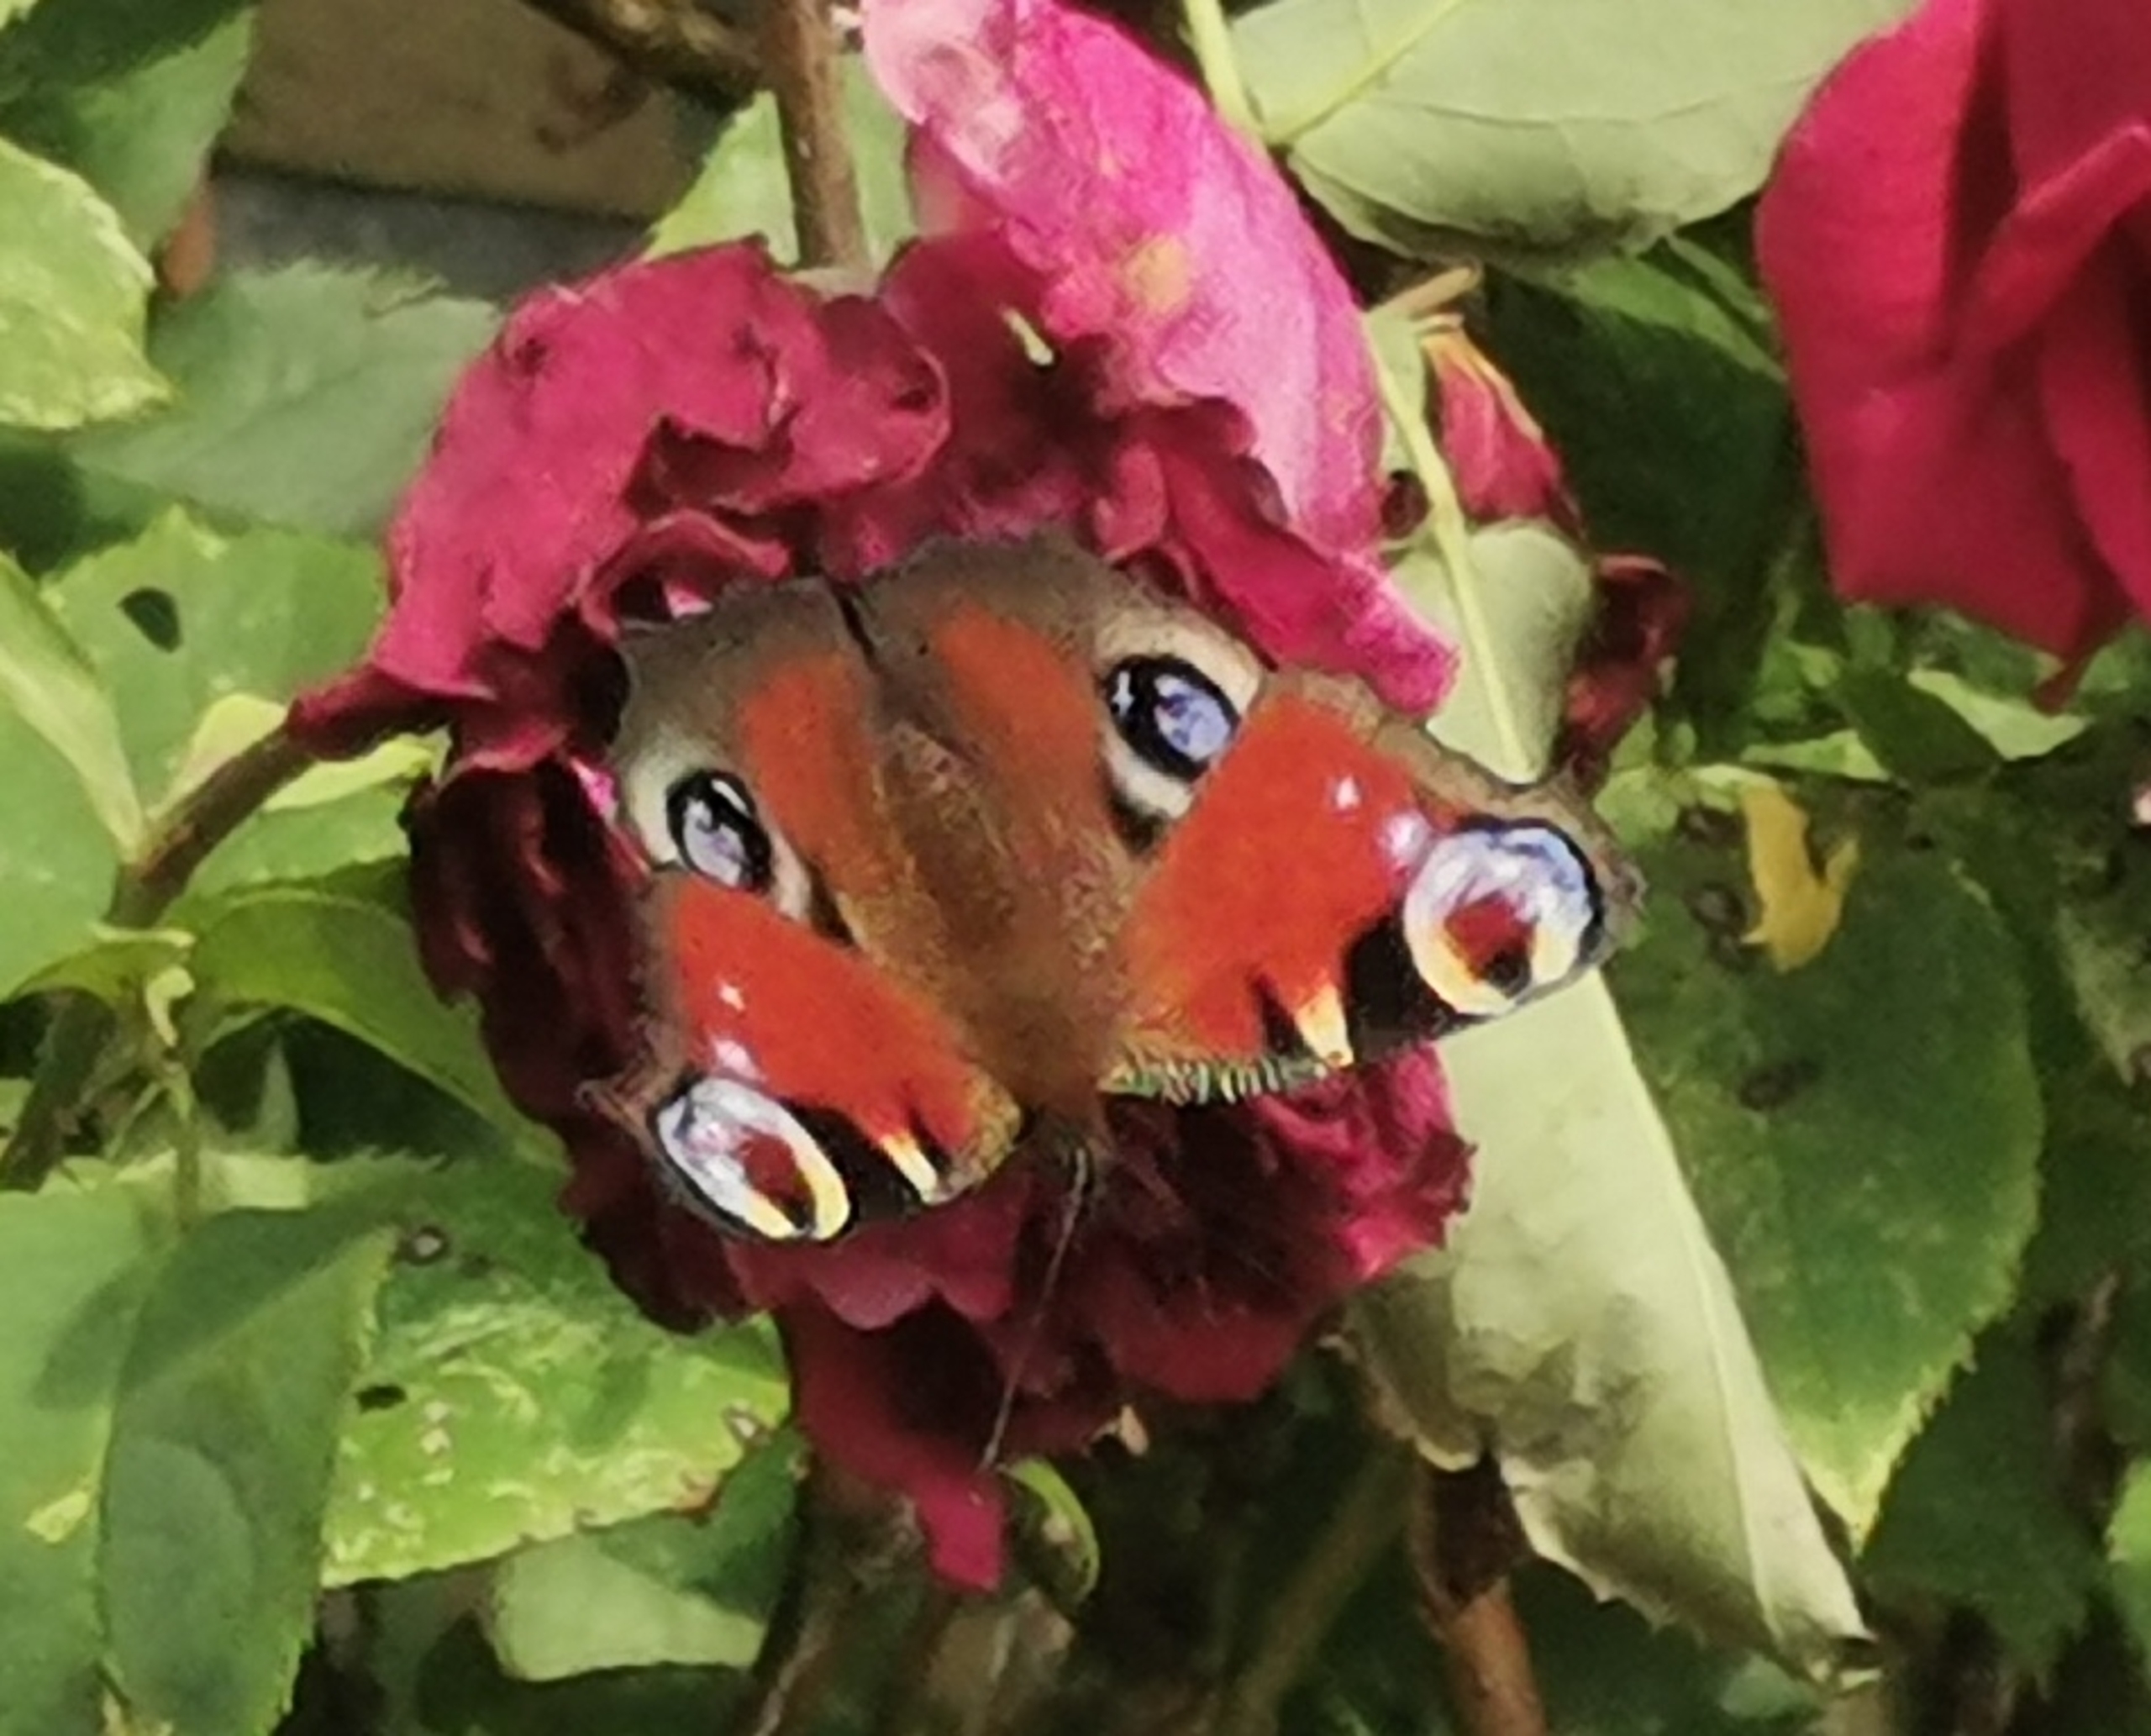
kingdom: Animalia
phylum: Arthropoda
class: Insecta
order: Lepidoptera
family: Nymphalidae
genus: Aglais
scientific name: Aglais io
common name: Dagpåfugleøje
